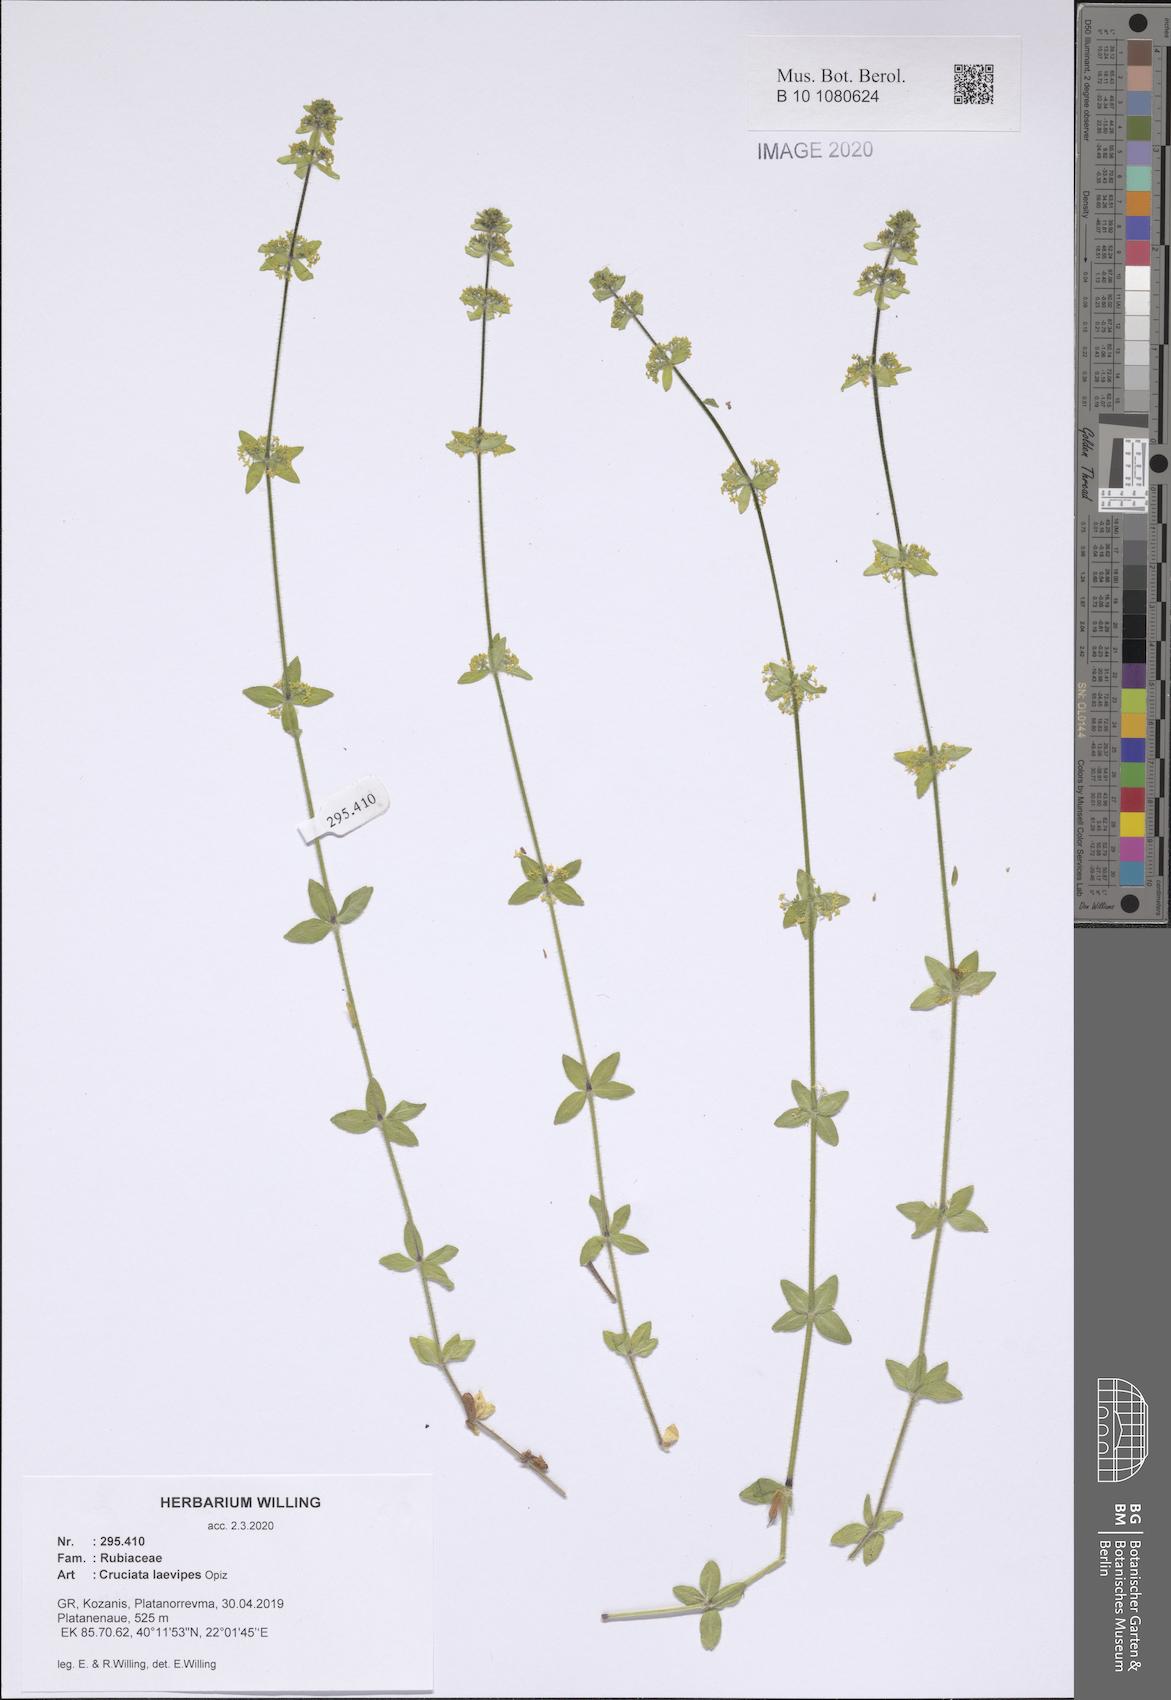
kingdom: Plantae
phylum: Tracheophyta
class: Magnoliopsida
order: Gentianales
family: Rubiaceae
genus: Cruciata
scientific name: Cruciata laevipes
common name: Crosswort
